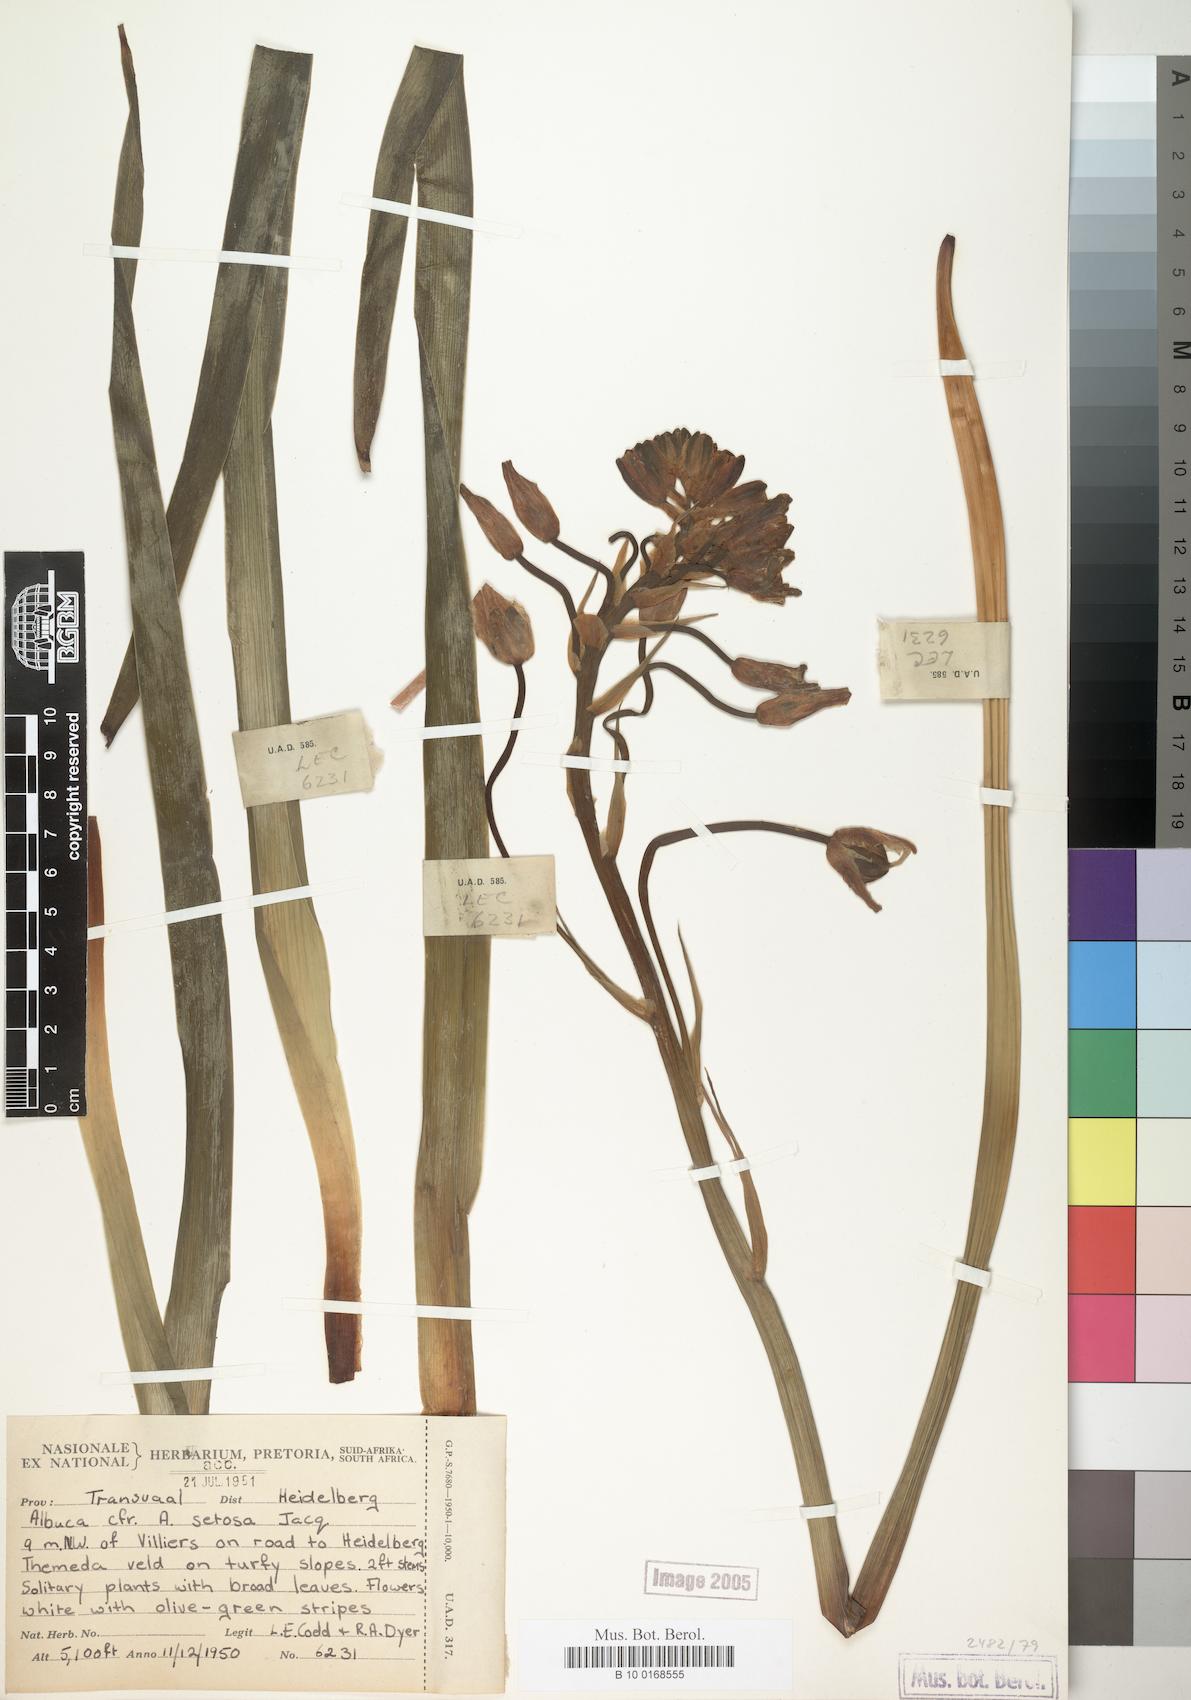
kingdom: Plantae
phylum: Tracheophyta
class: Liliopsida
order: Asparagales
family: Asparagaceae
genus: Albuca
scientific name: Albuca setosa
